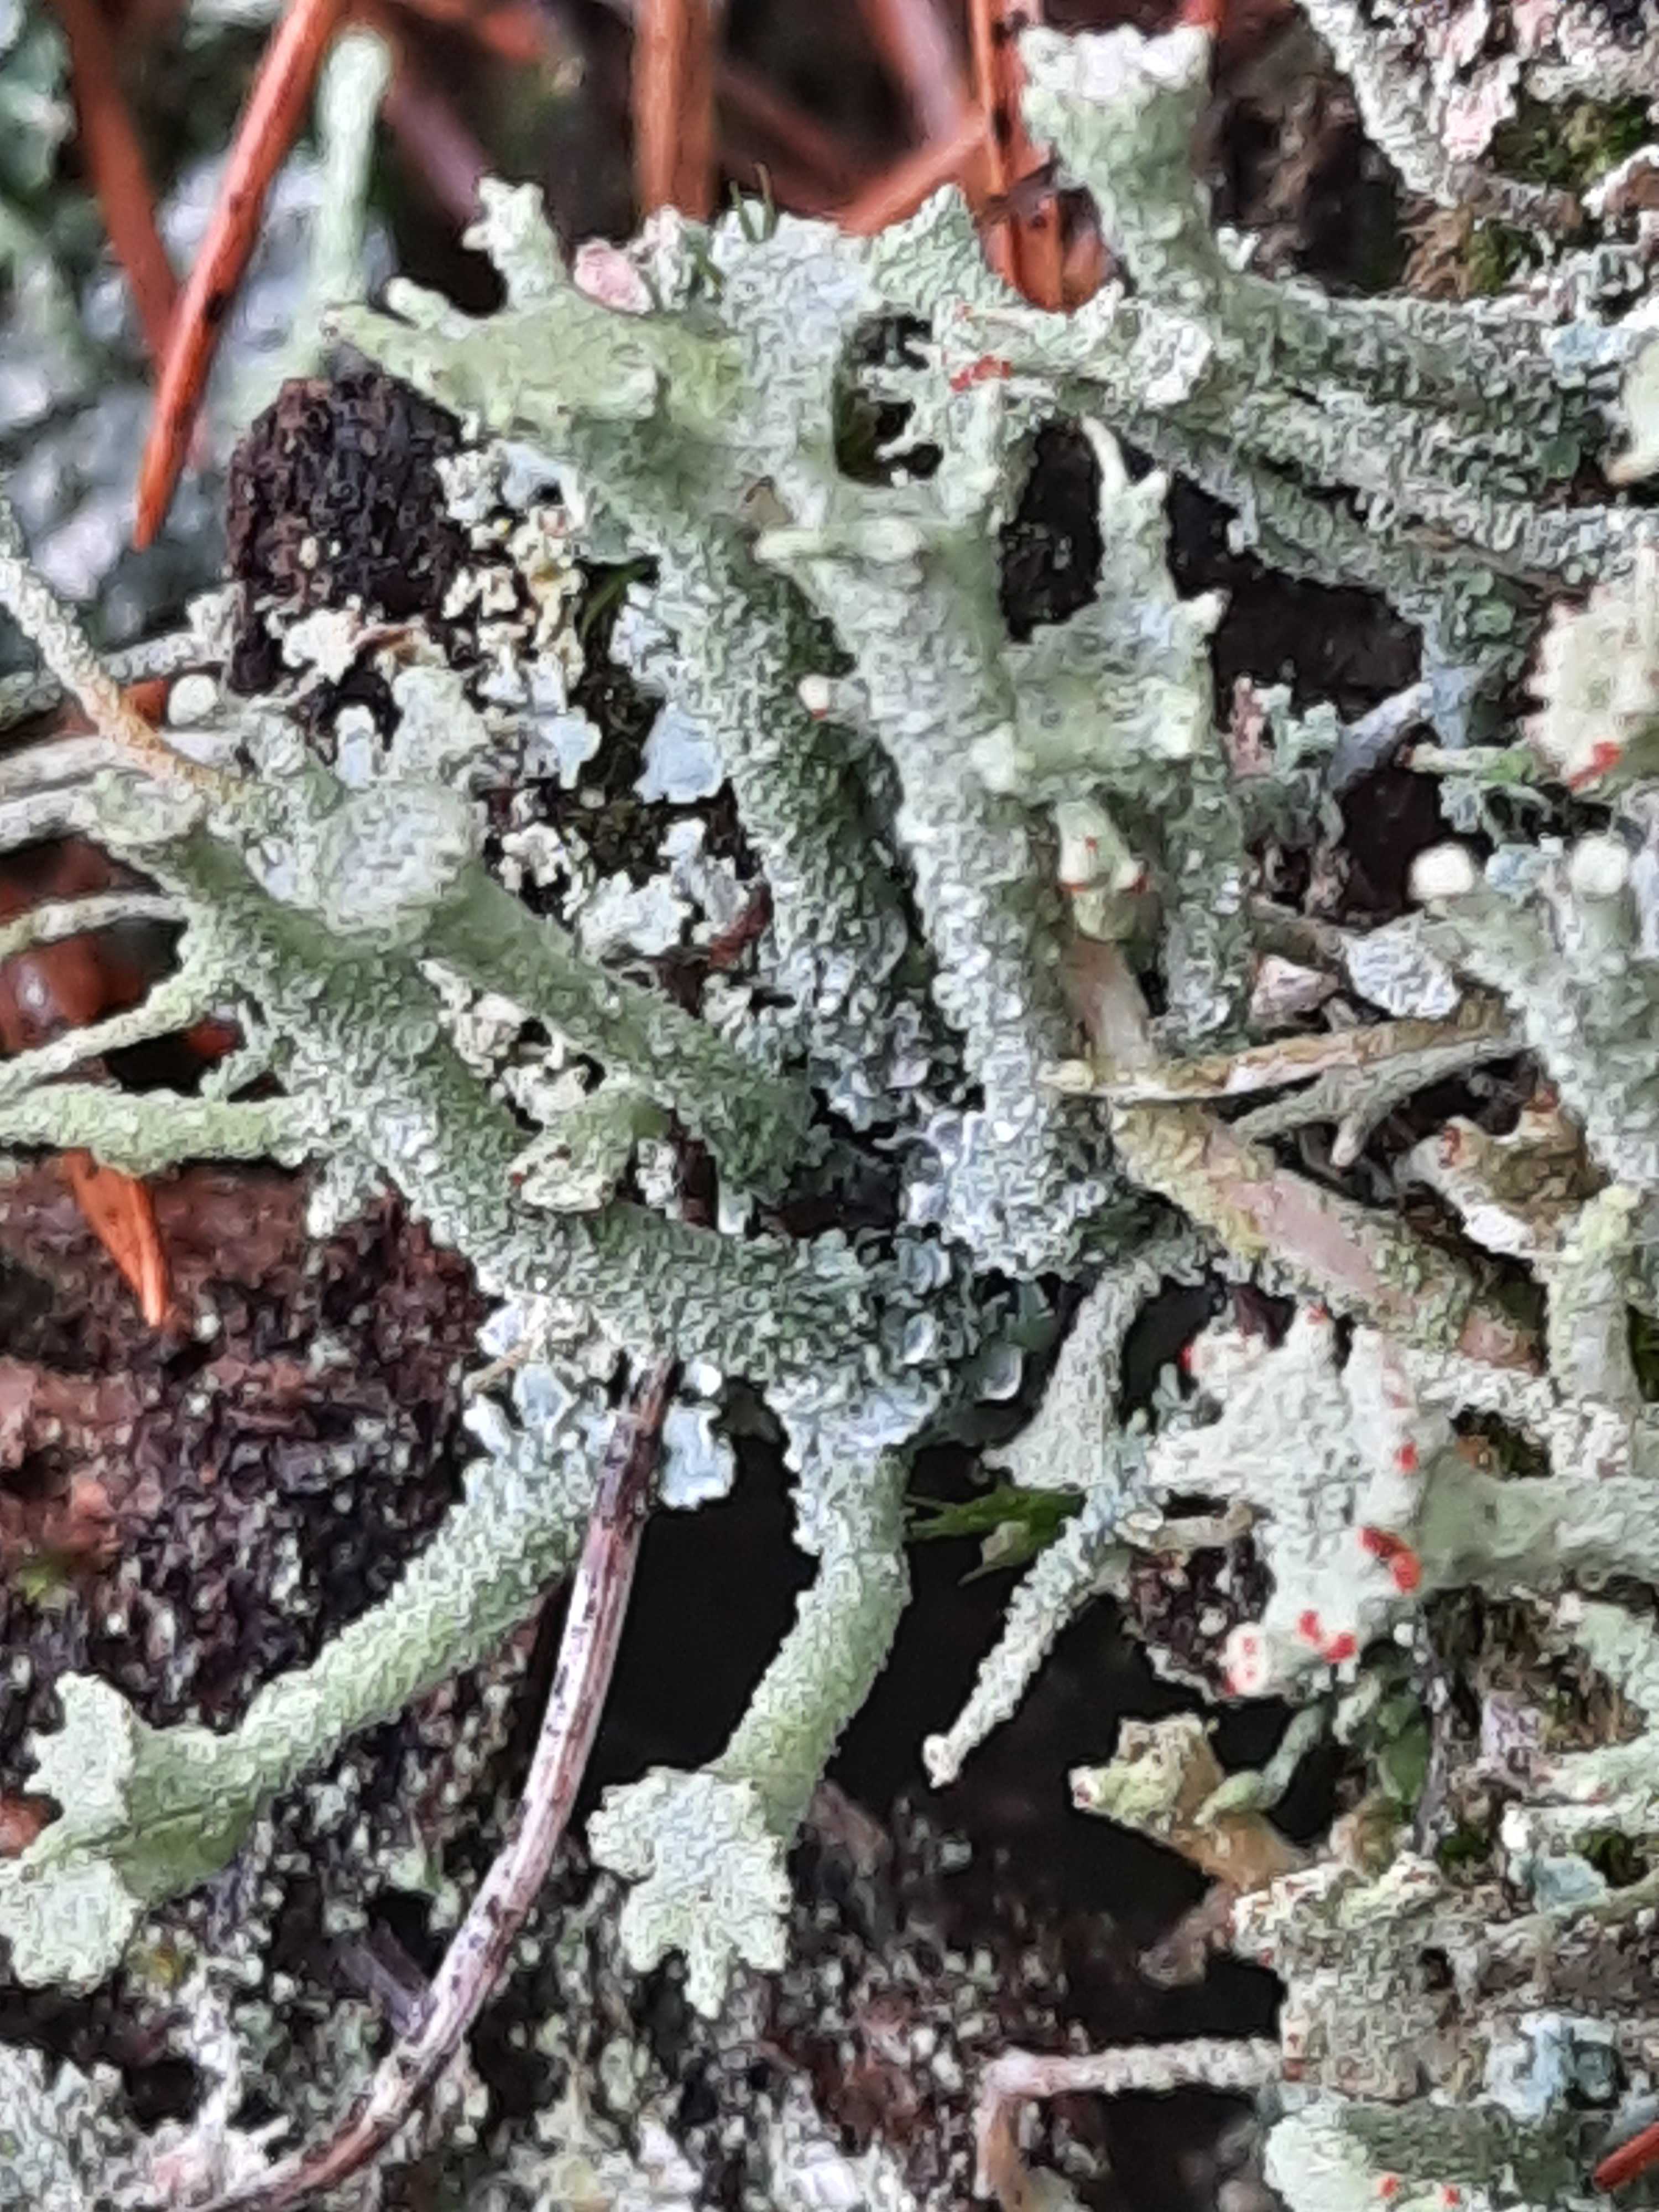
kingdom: Fungi
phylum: Ascomycota
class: Lecanoromycetes
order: Lecanorales
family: Cladoniaceae
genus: Cladonia
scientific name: Cladonia polydactyla
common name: vifte-bægerlav
